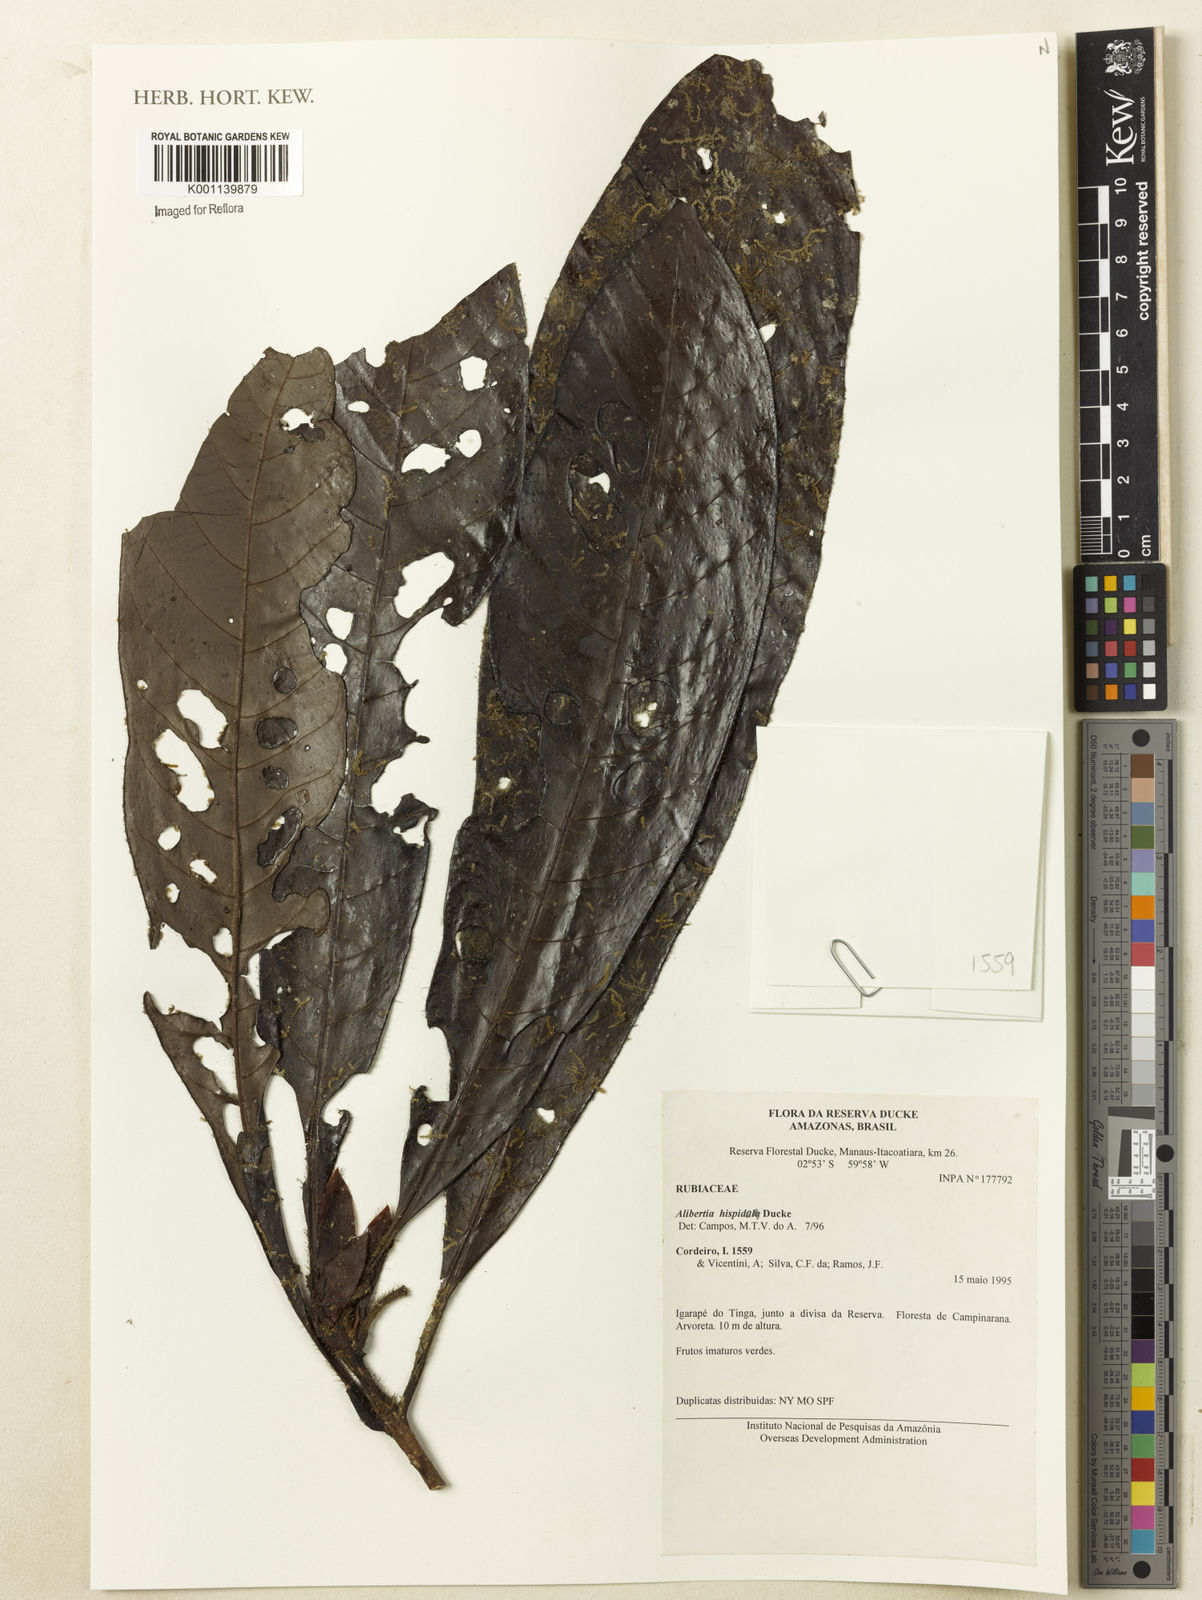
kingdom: Plantae
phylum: Tracheophyta
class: Magnoliopsida
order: Gentianales
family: Rubiaceae
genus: Kutchubaea
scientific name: Kutchubaea oocarpa
